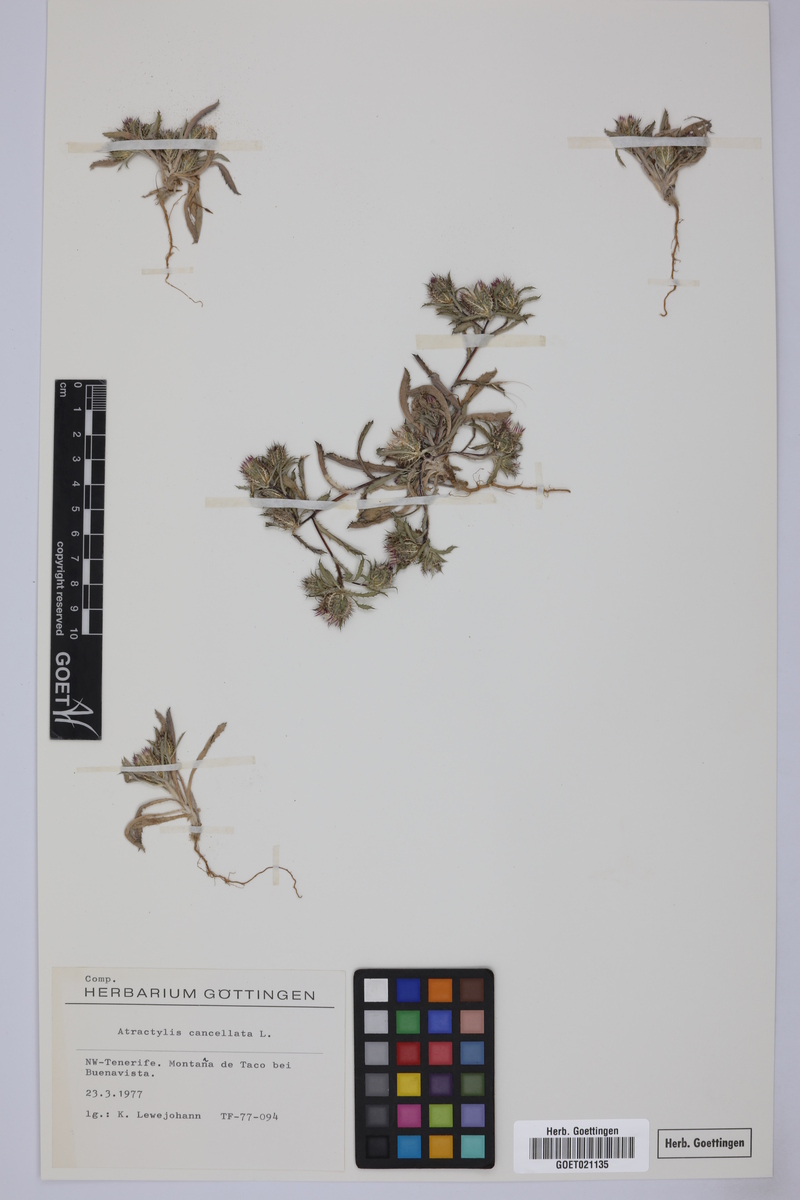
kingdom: Plantae
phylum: Tracheophyta
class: Magnoliopsida
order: Asterales
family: Asteraceae
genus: Atractylis
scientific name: Atractylis cancellata
